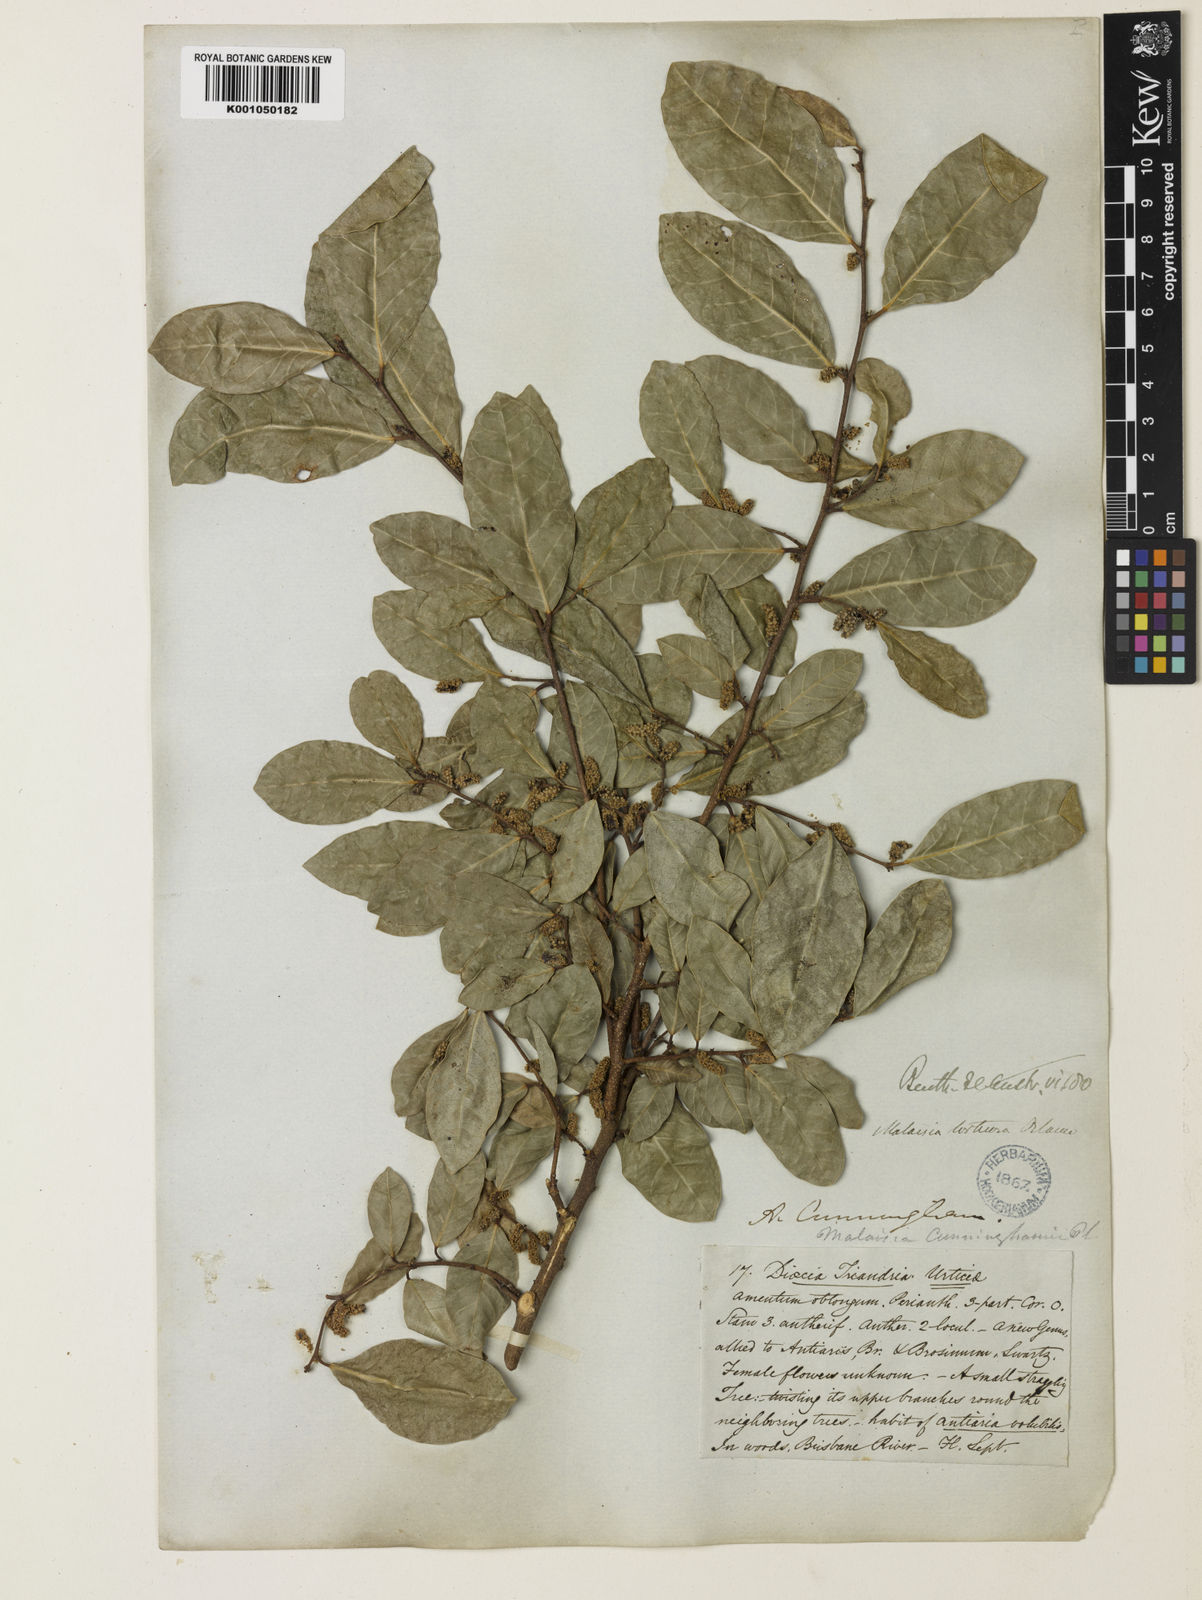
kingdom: Plantae
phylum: Tracheophyta
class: Magnoliopsida
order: Rosales
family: Moraceae
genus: Malaisia
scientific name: Malaisia scandens
